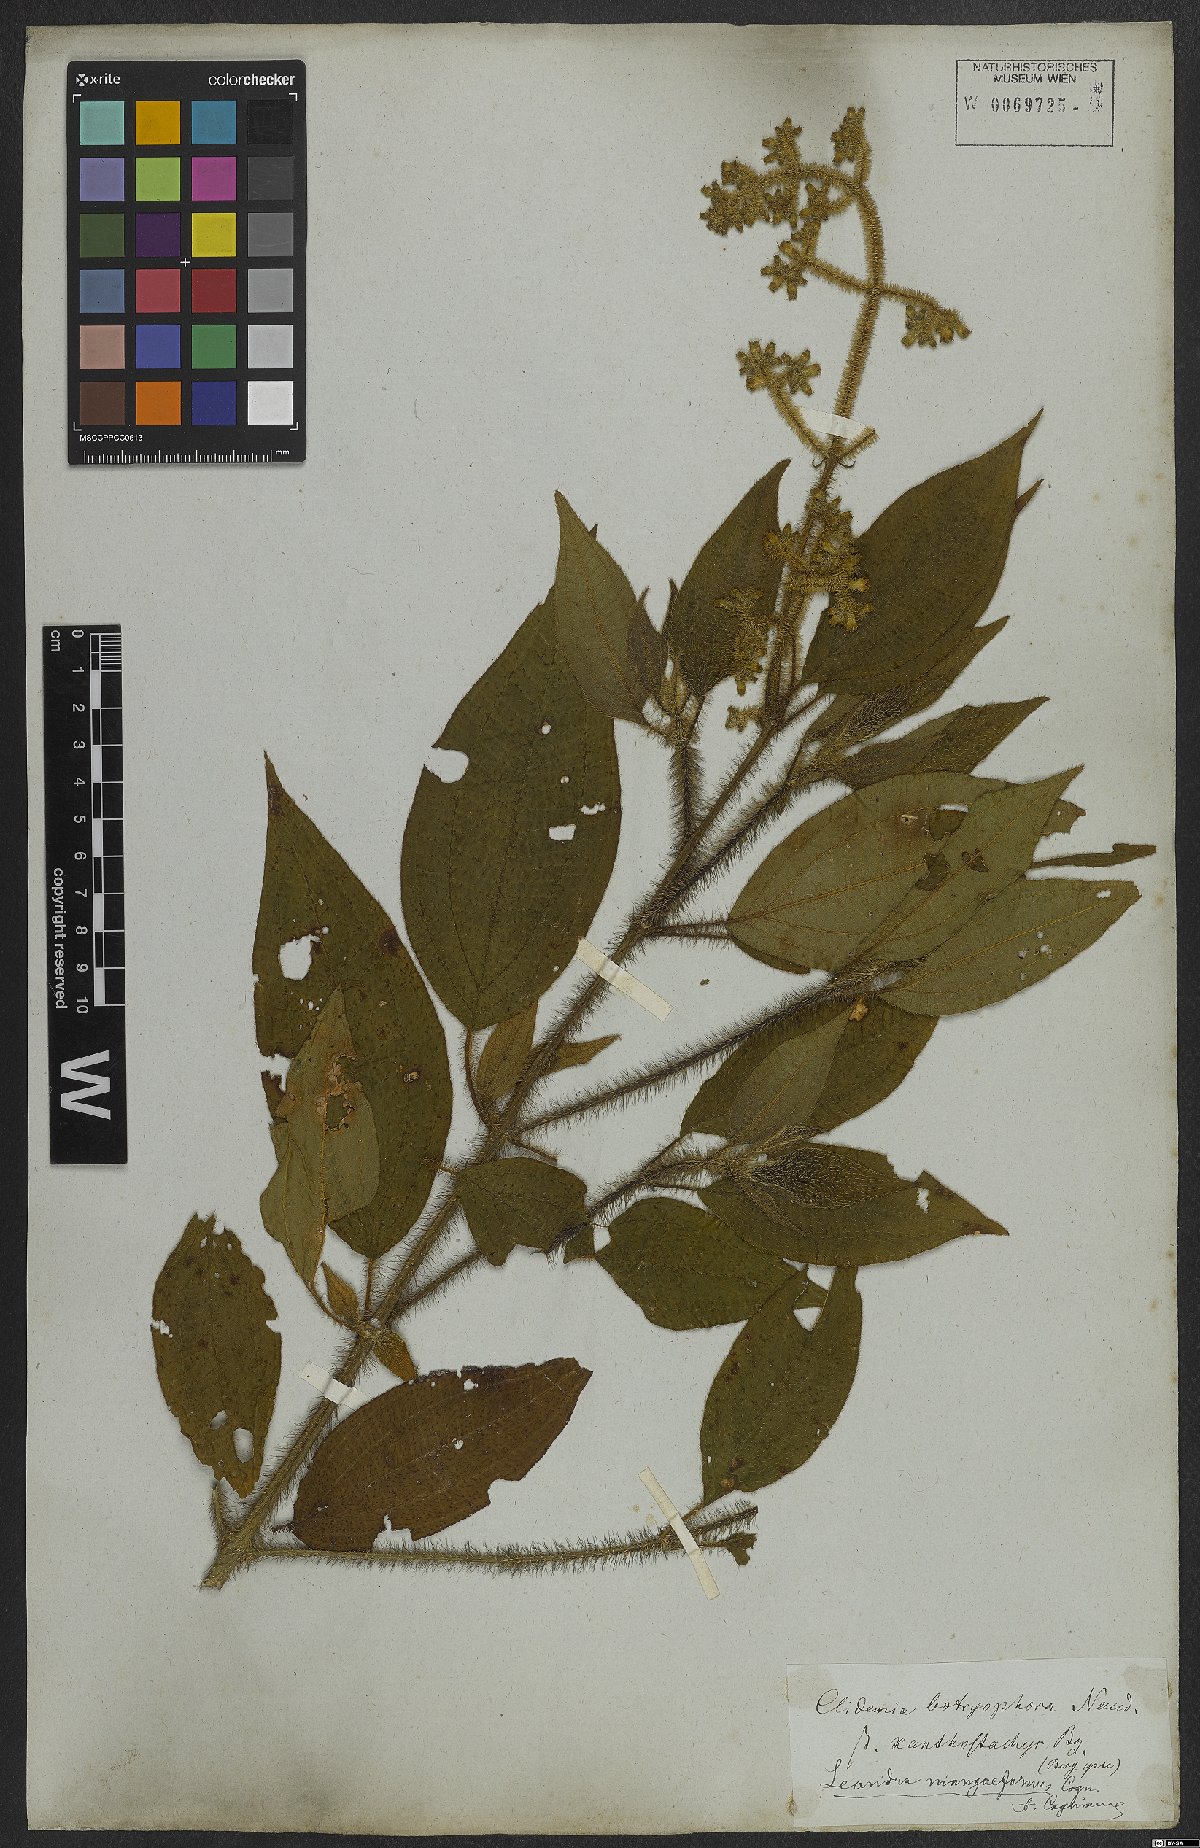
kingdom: Plantae
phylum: Tracheophyta
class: Magnoliopsida
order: Myrtales
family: Melastomataceae
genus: Miconia
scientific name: Miconia niangaeformis
